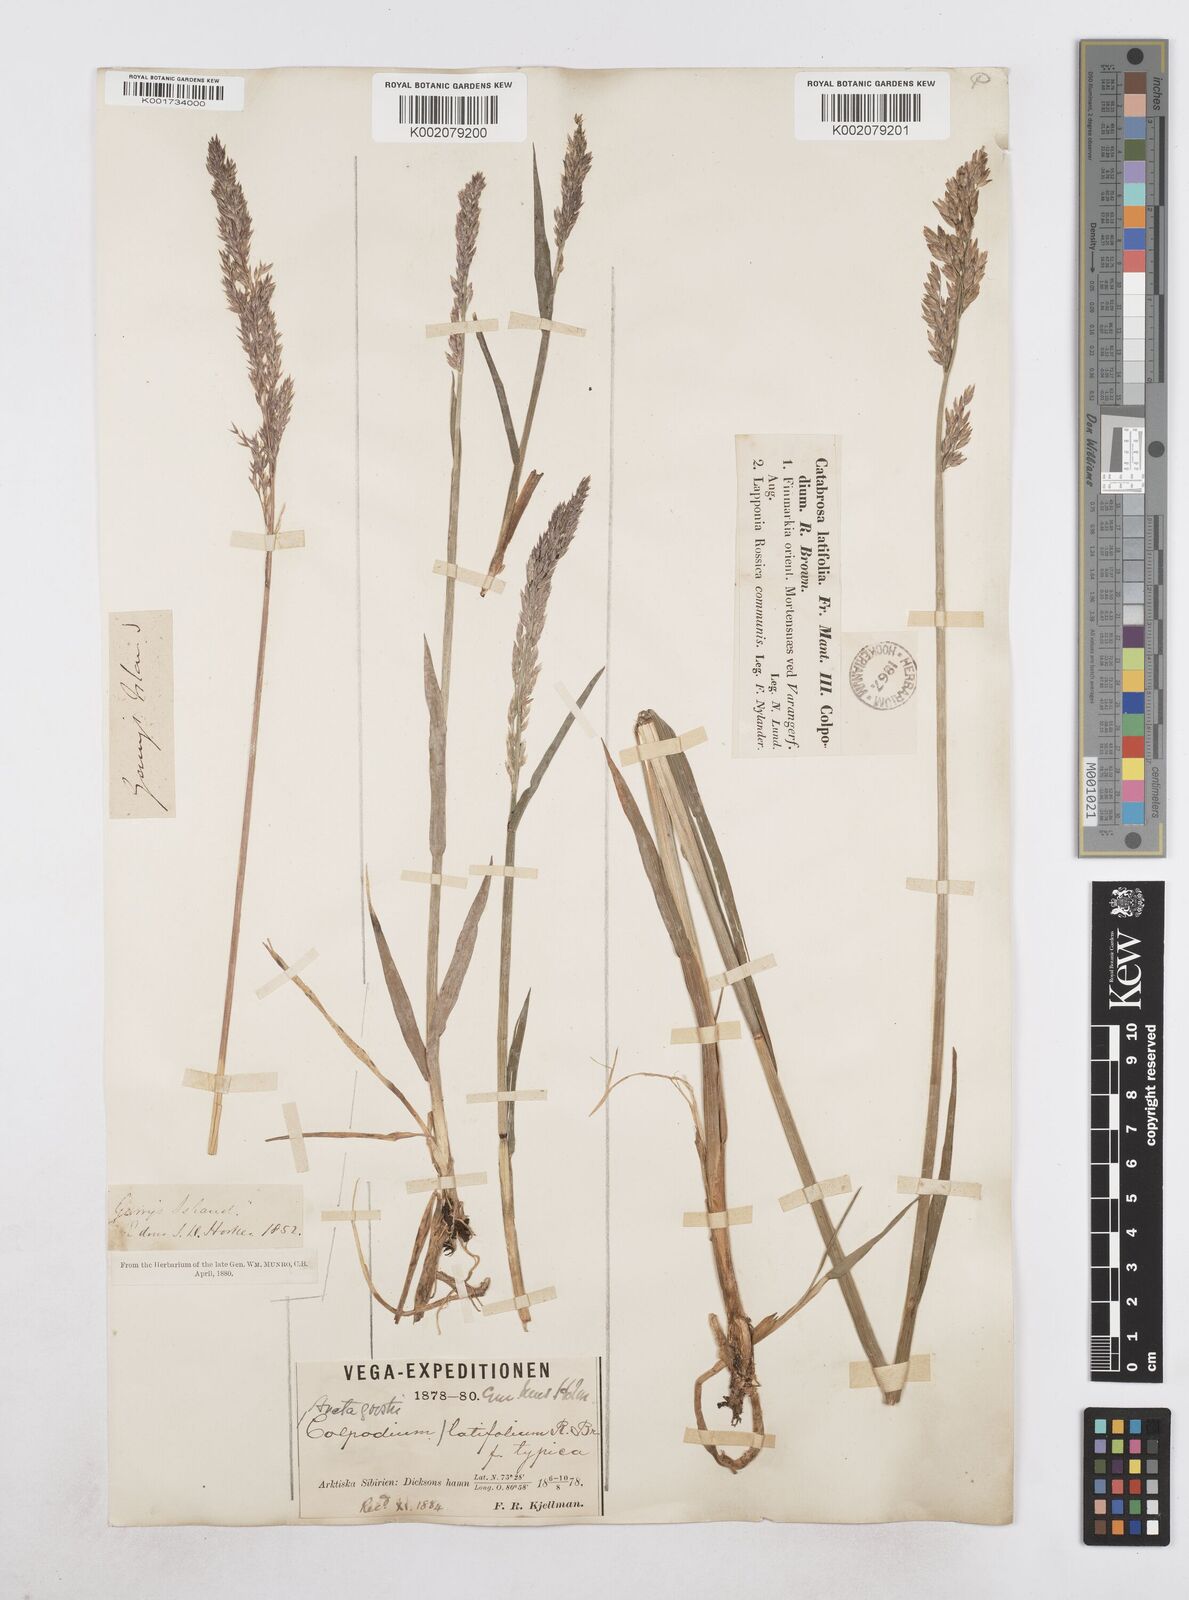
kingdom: Plantae
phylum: Tracheophyta
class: Liliopsida
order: Poales
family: Poaceae
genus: Arctagrostis
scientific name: Arctagrostis latifolia
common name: Arctic grass
